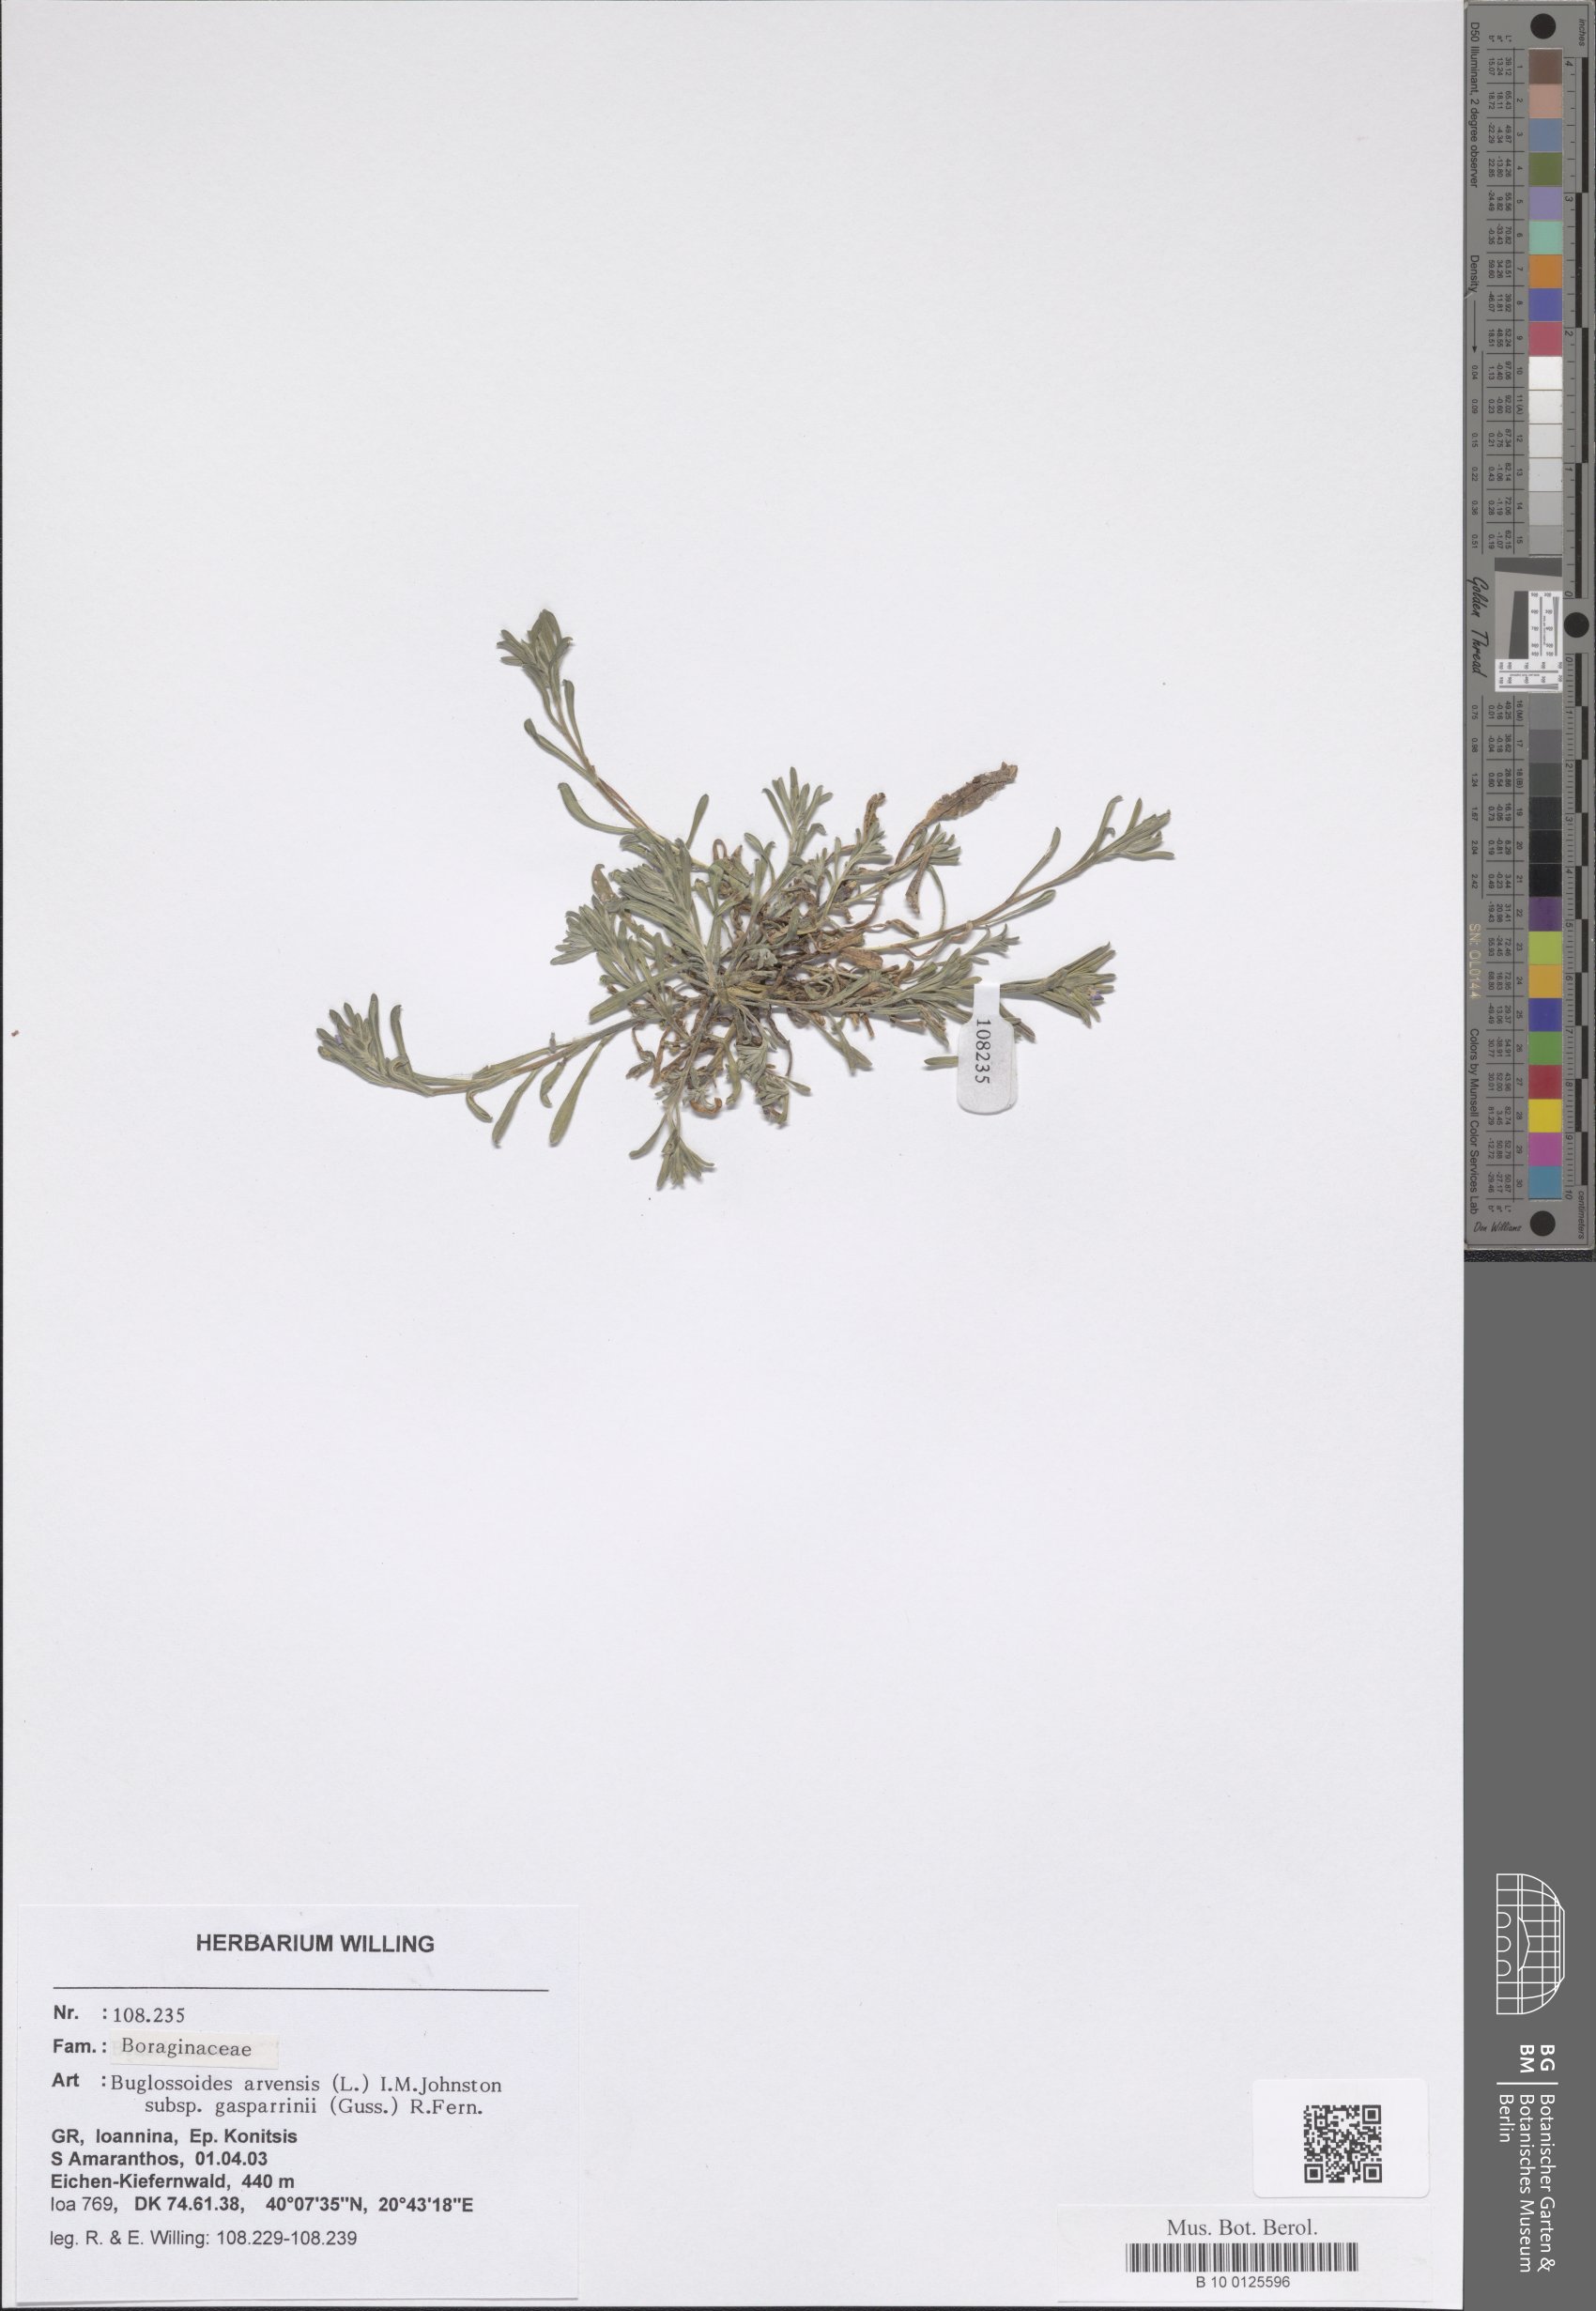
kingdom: Plantae
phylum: Tracheophyta
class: Magnoliopsida
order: Boraginales
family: Boraginaceae
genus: Buglossoides
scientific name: Buglossoides incrassata
